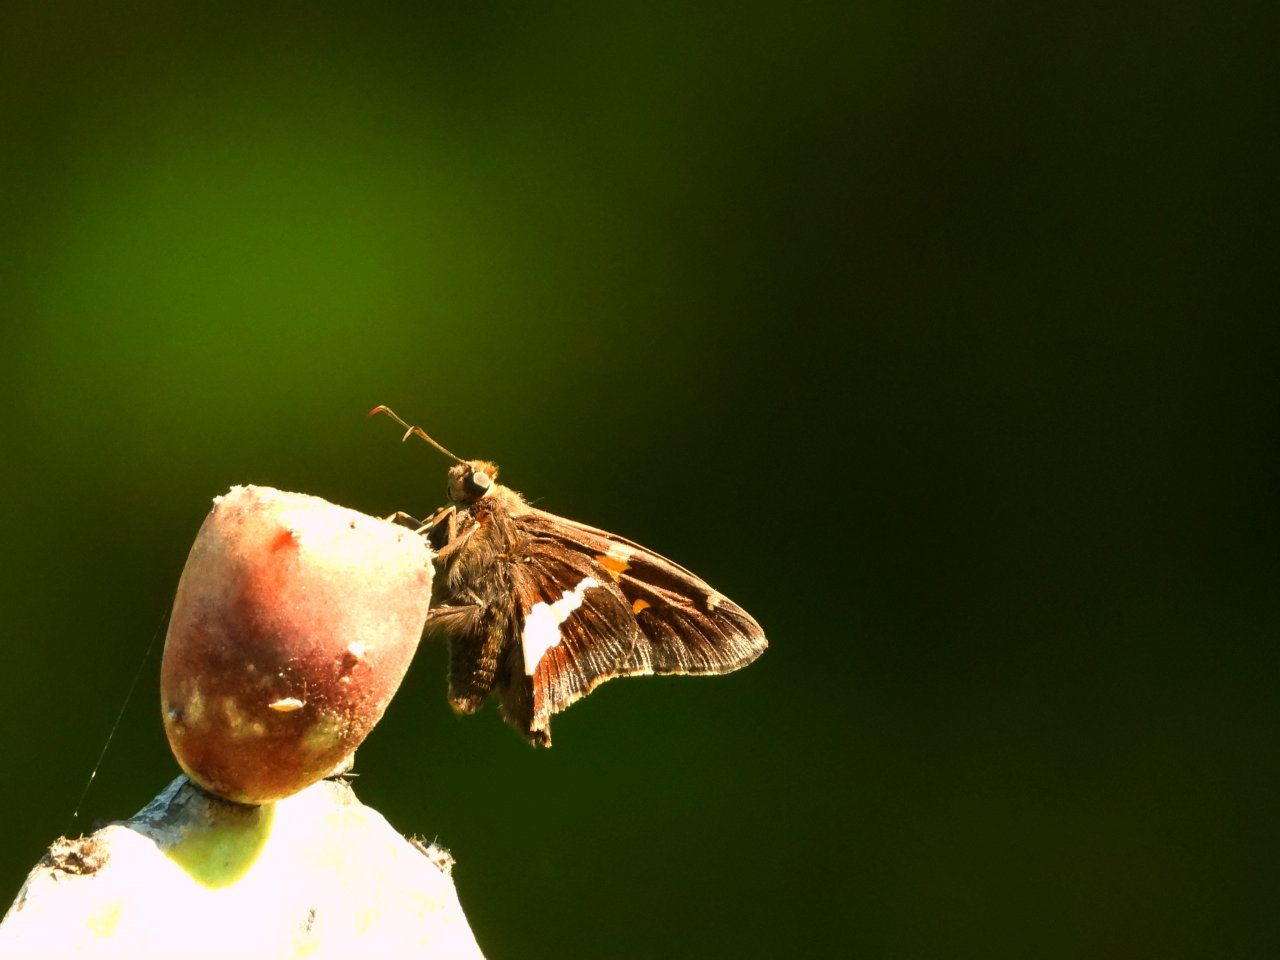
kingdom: Animalia
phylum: Arthropoda
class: Insecta
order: Lepidoptera
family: Hesperiidae
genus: Epargyreus
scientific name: Epargyreus clarus
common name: Silver-spotted Skipper
